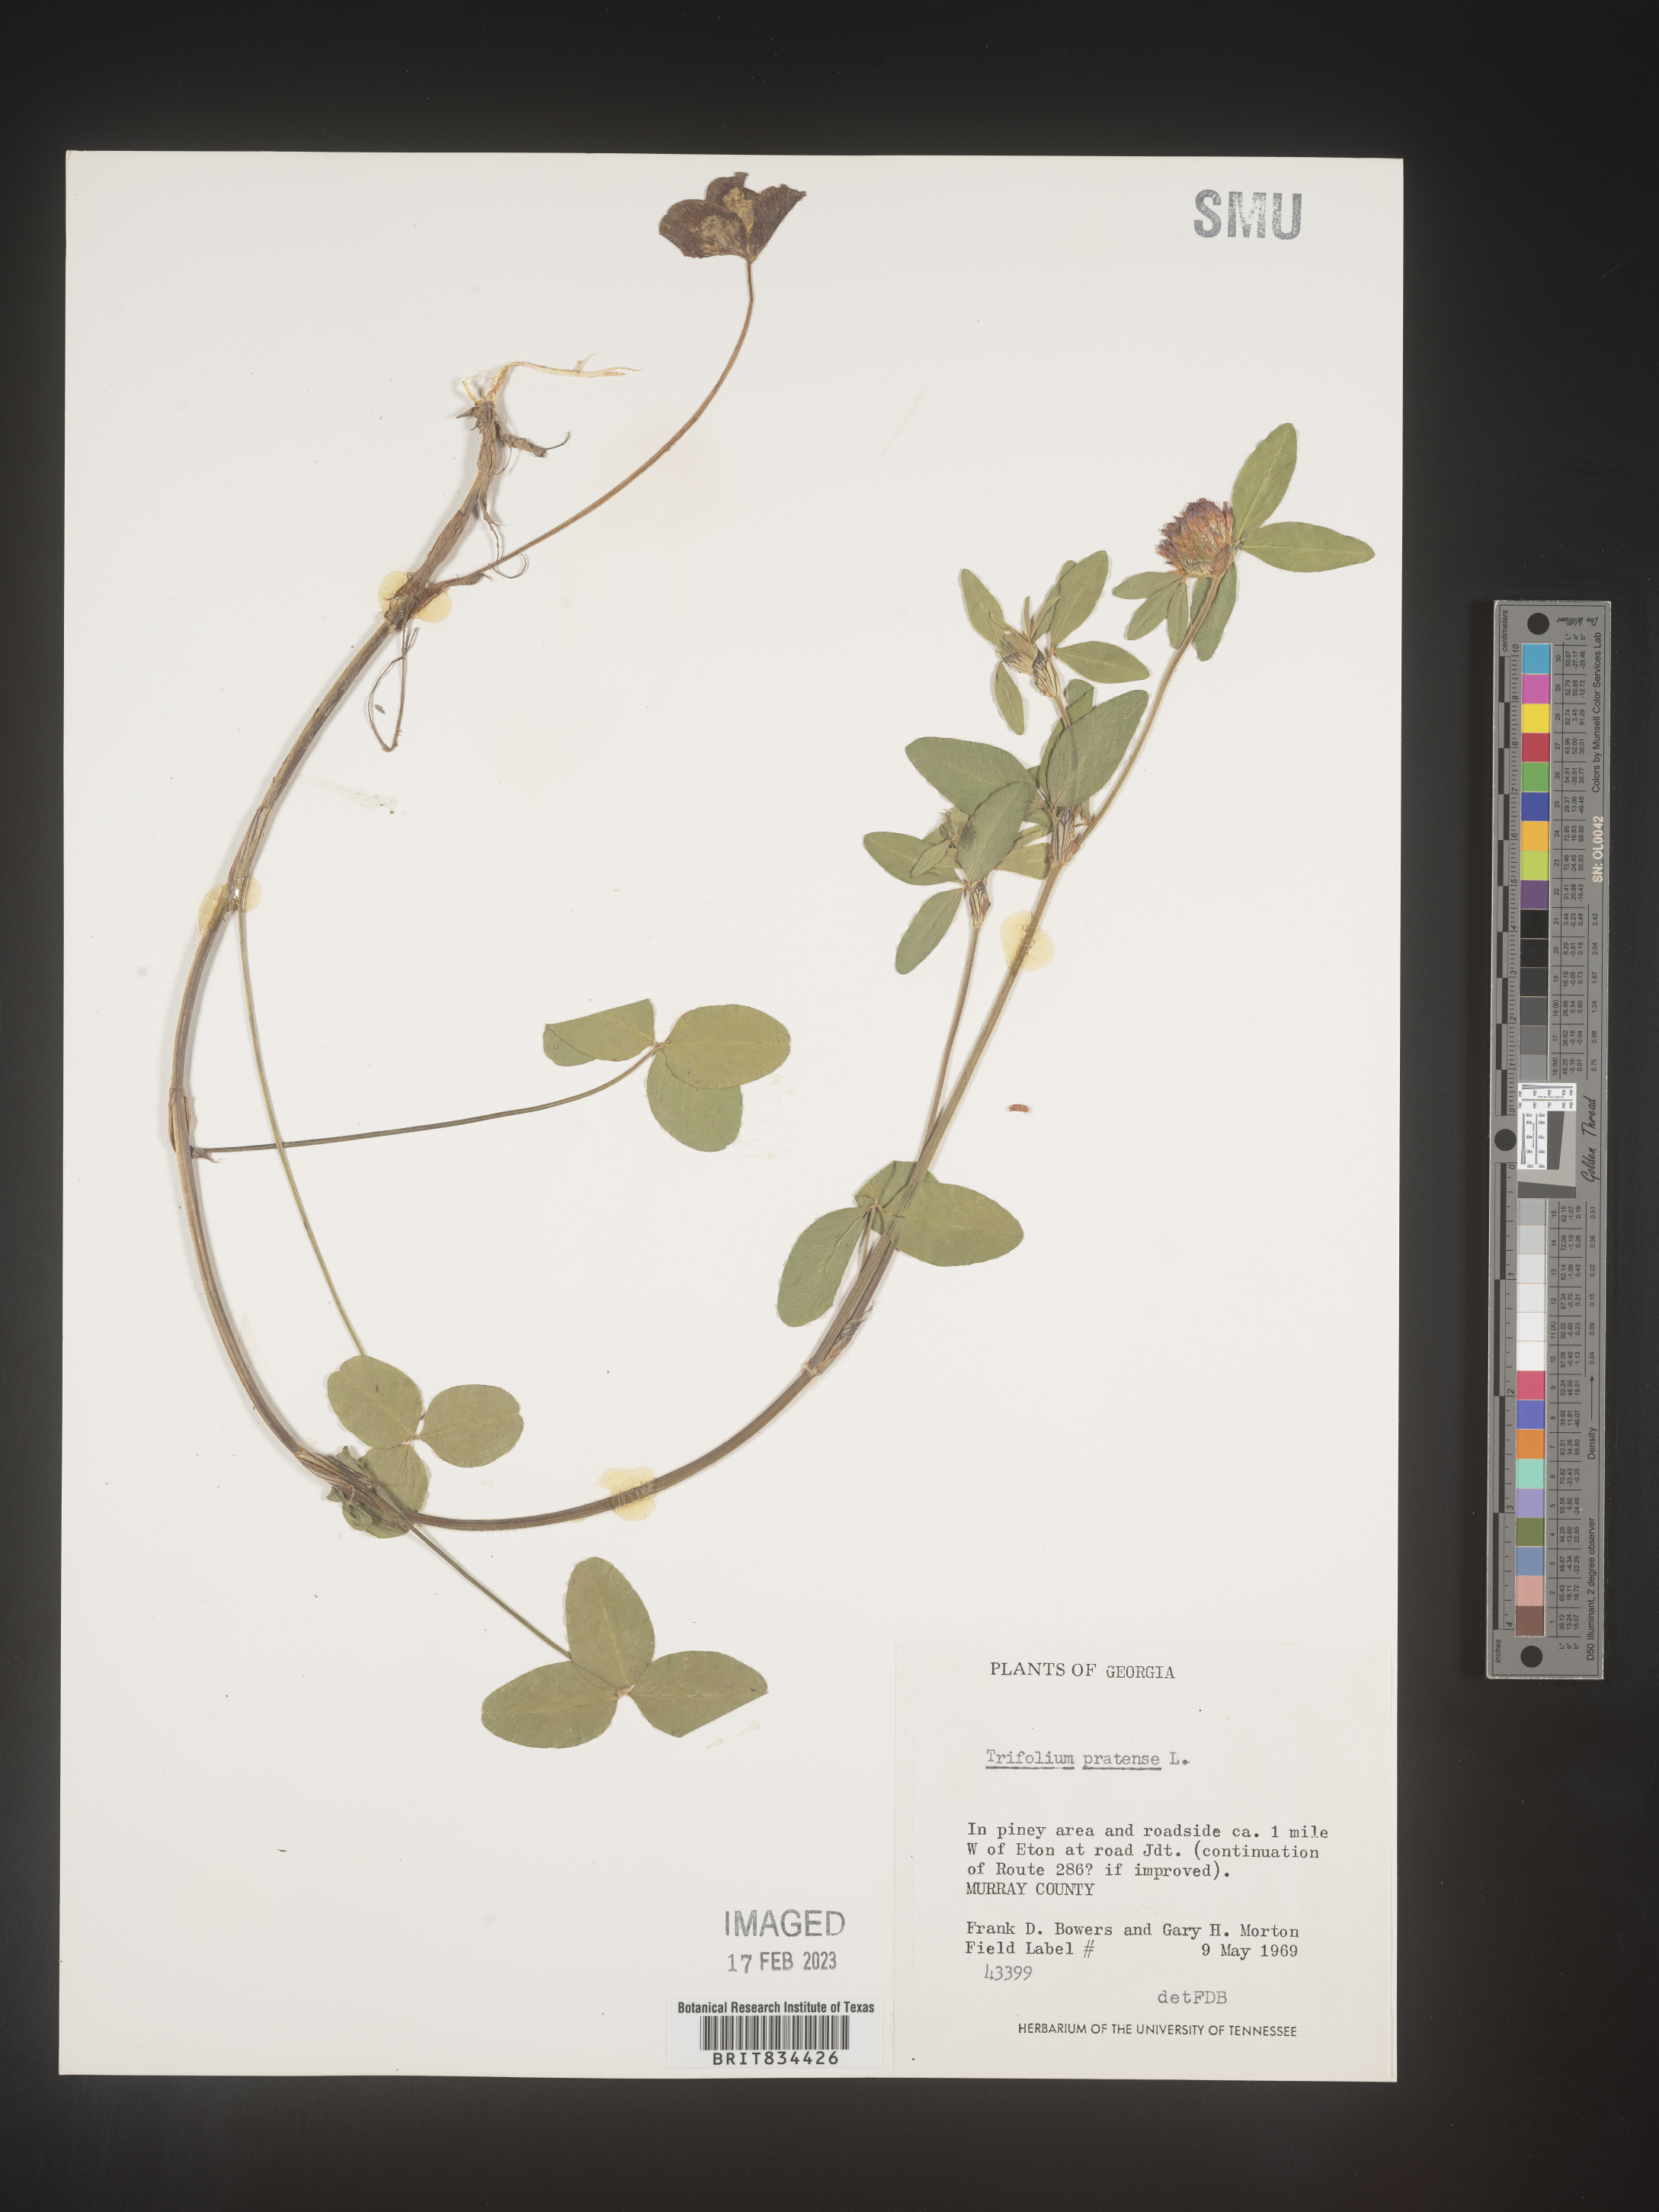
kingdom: Plantae
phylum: Tracheophyta
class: Magnoliopsida
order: Fabales
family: Fabaceae
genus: Trifolium
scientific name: Trifolium pratense
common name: Red clover
